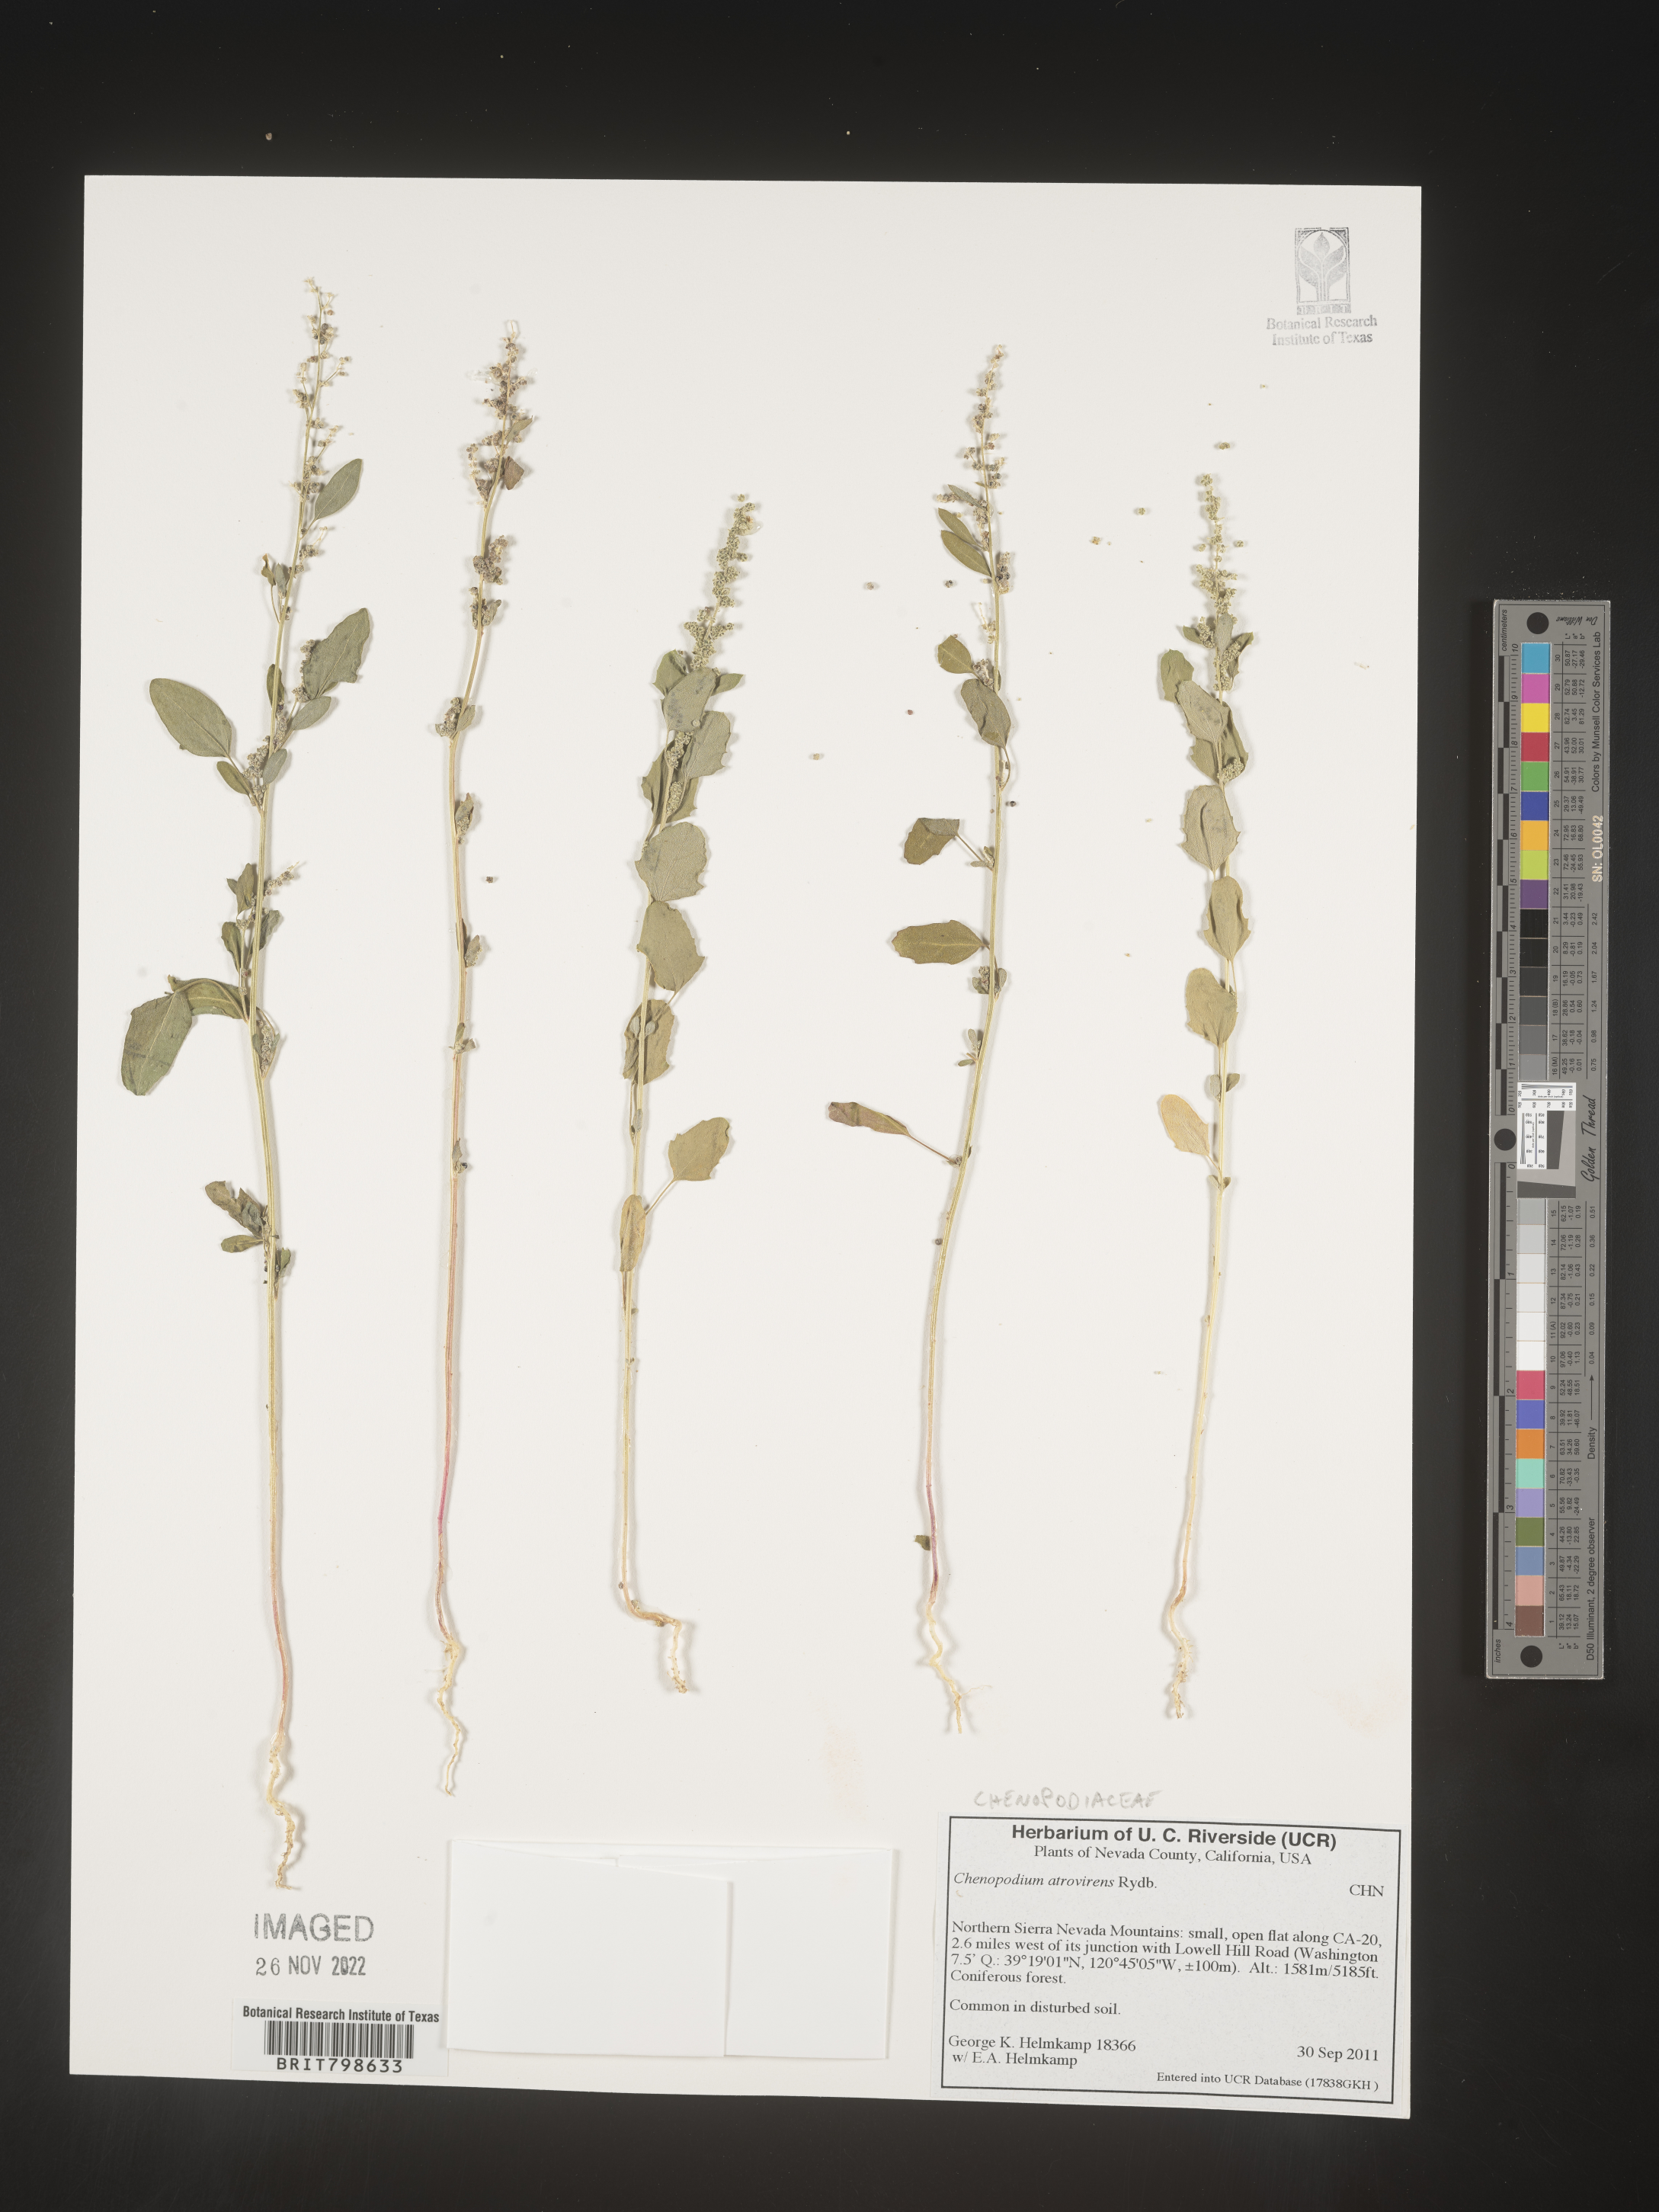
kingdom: Plantae
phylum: Tracheophyta
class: Magnoliopsida
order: Caryophyllales
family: Amaranthaceae
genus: Chenopodium
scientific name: Chenopodium atrovirens
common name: Dark goosefoot
